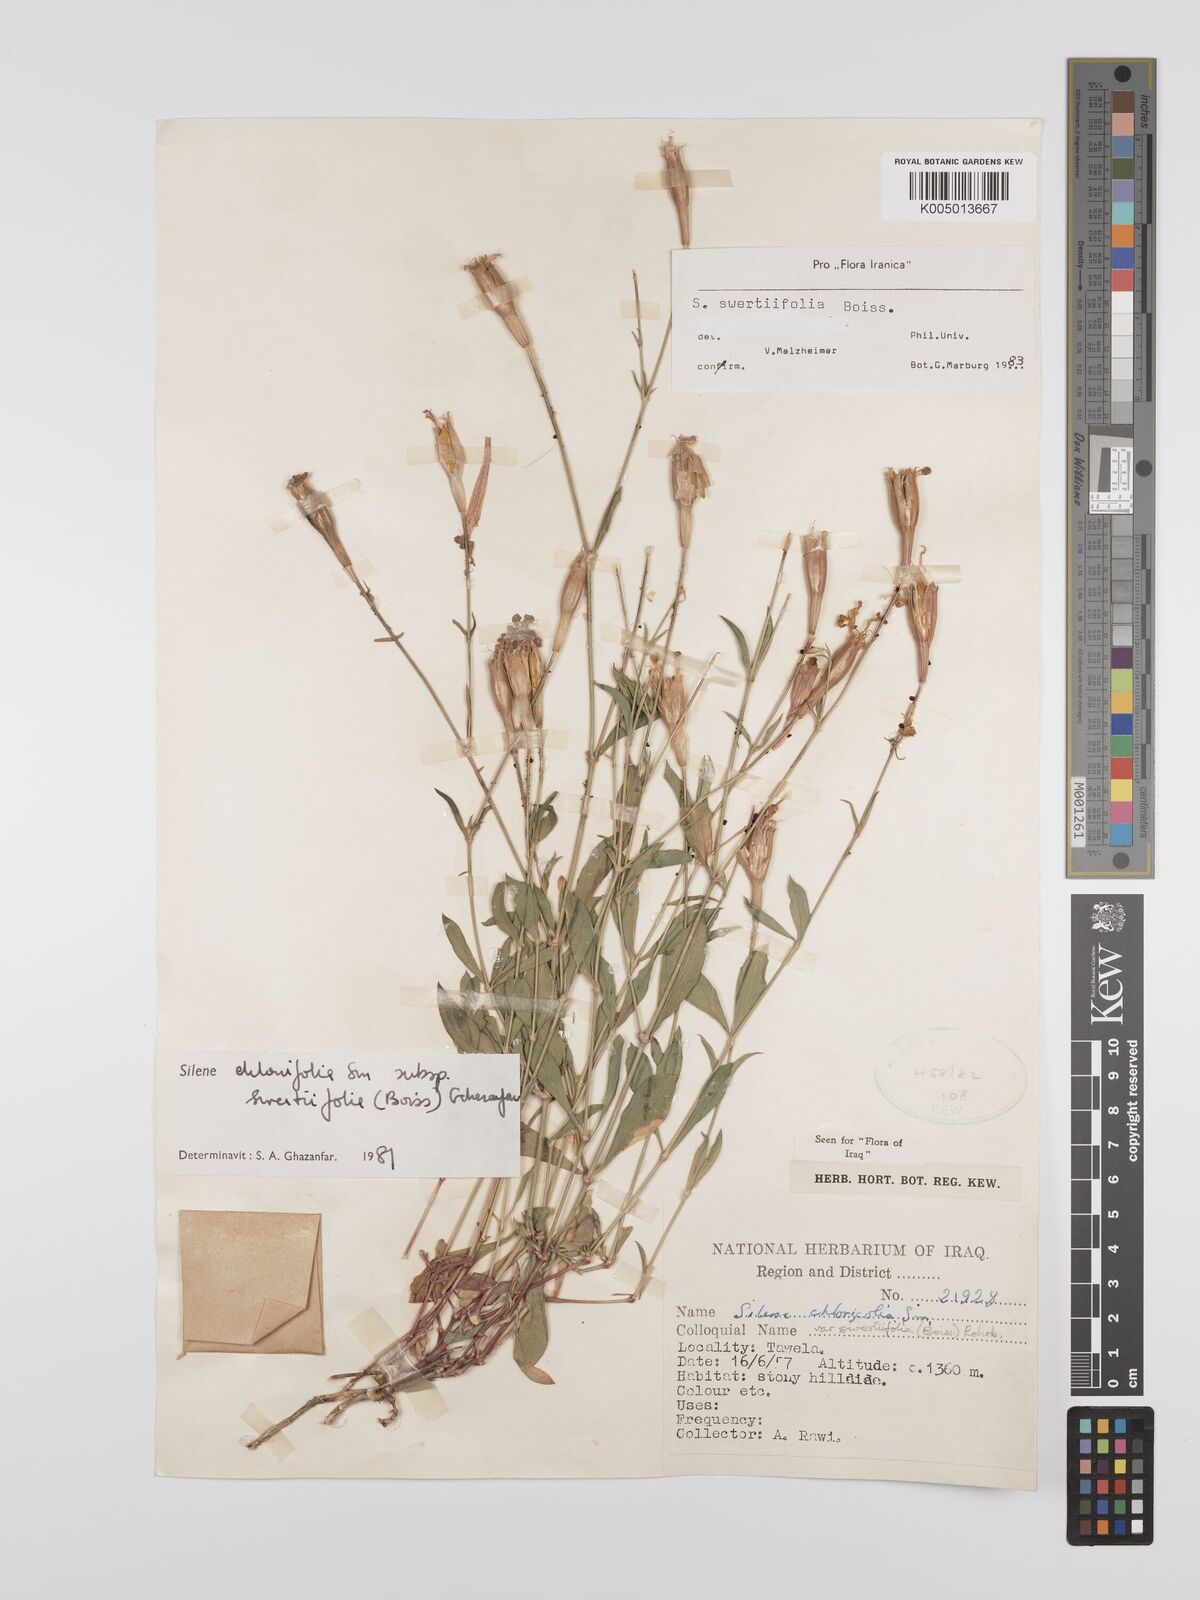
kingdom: Plantae
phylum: Tracheophyta
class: Magnoliopsida
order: Caryophyllales
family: Caryophyllaceae
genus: Silene
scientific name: Silene chlorifolia
